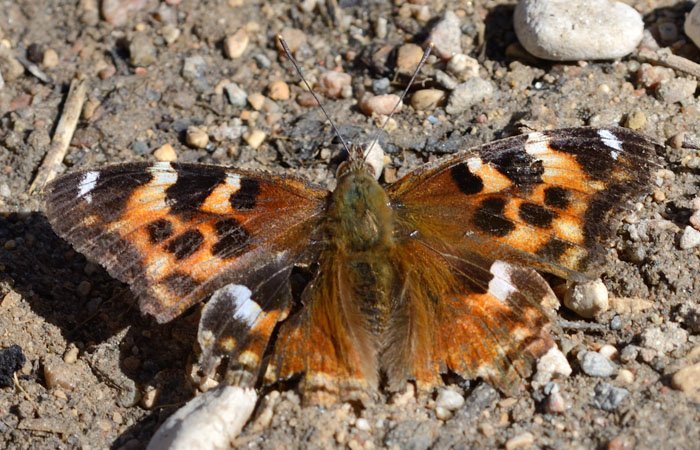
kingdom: Animalia
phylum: Arthropoda
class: Insecta
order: Lepidoptera
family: Nymphalidae
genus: Polygonia
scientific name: Polygonia vaualbum
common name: Compton Tortoiseshell
